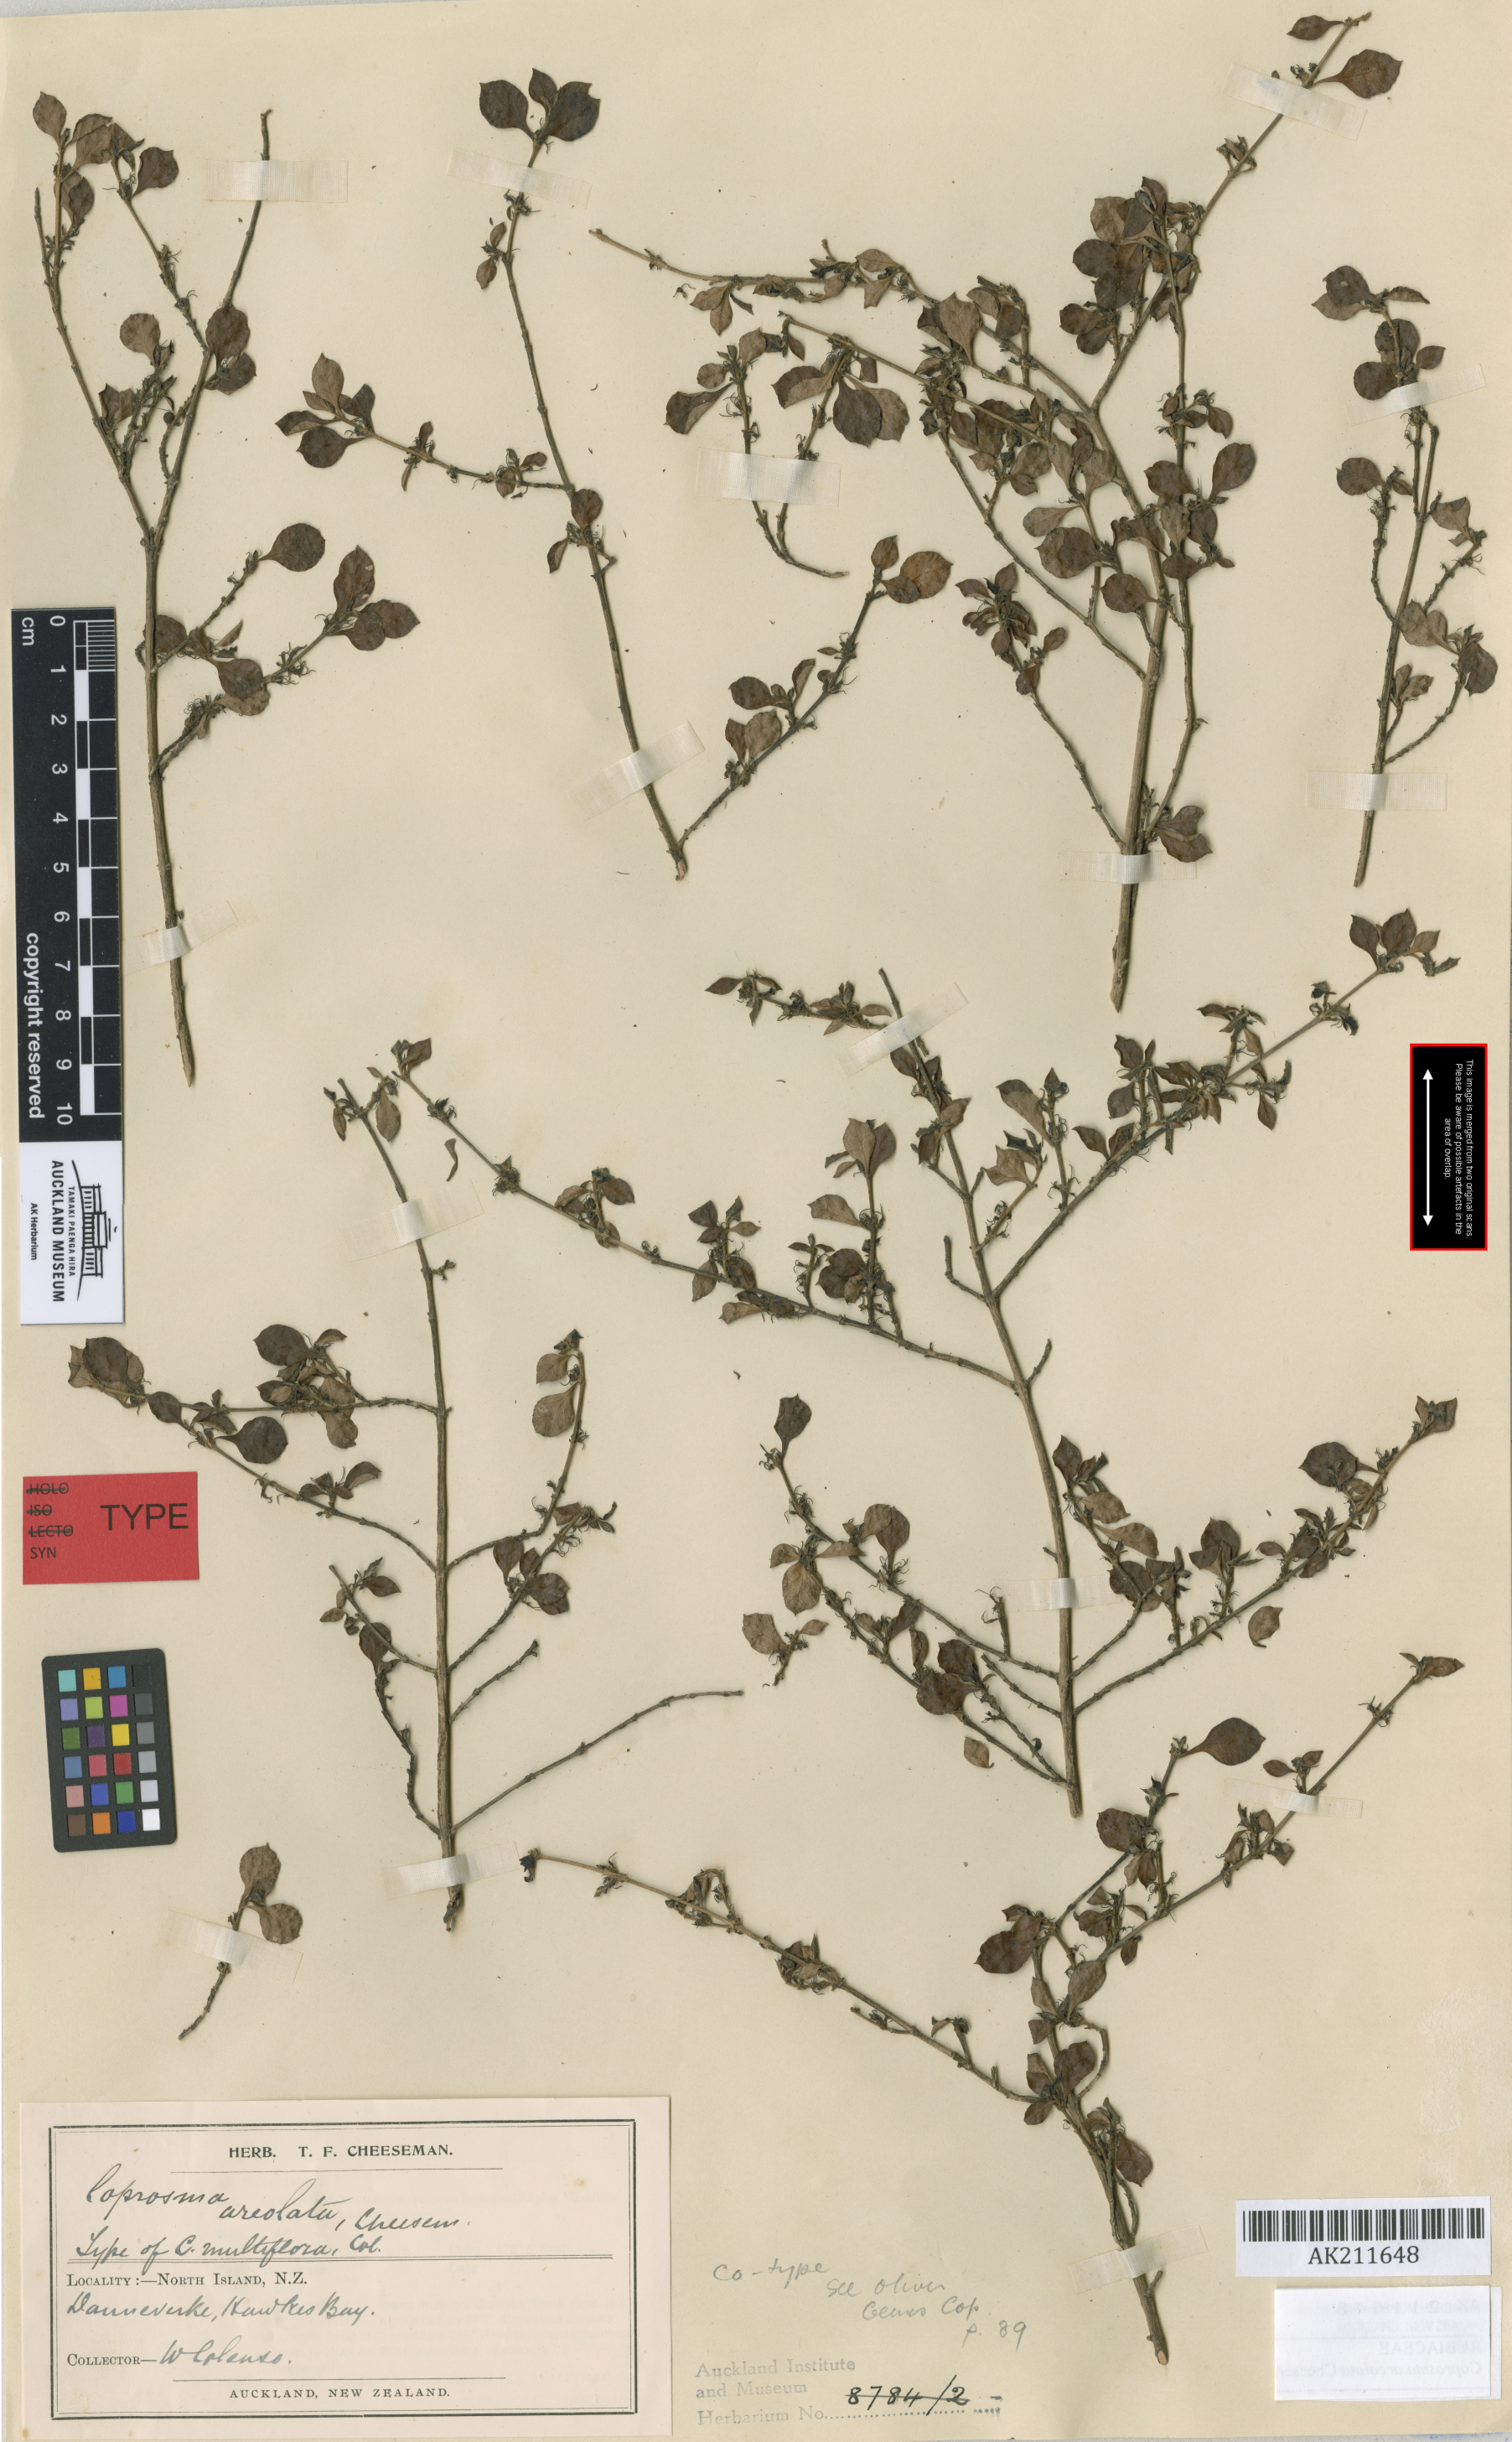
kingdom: Plantae
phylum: Tracheophyta
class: Magnoliopsida
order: Gentianales
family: Rubiaceae
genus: Coprosma
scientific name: Coprosma areolata
